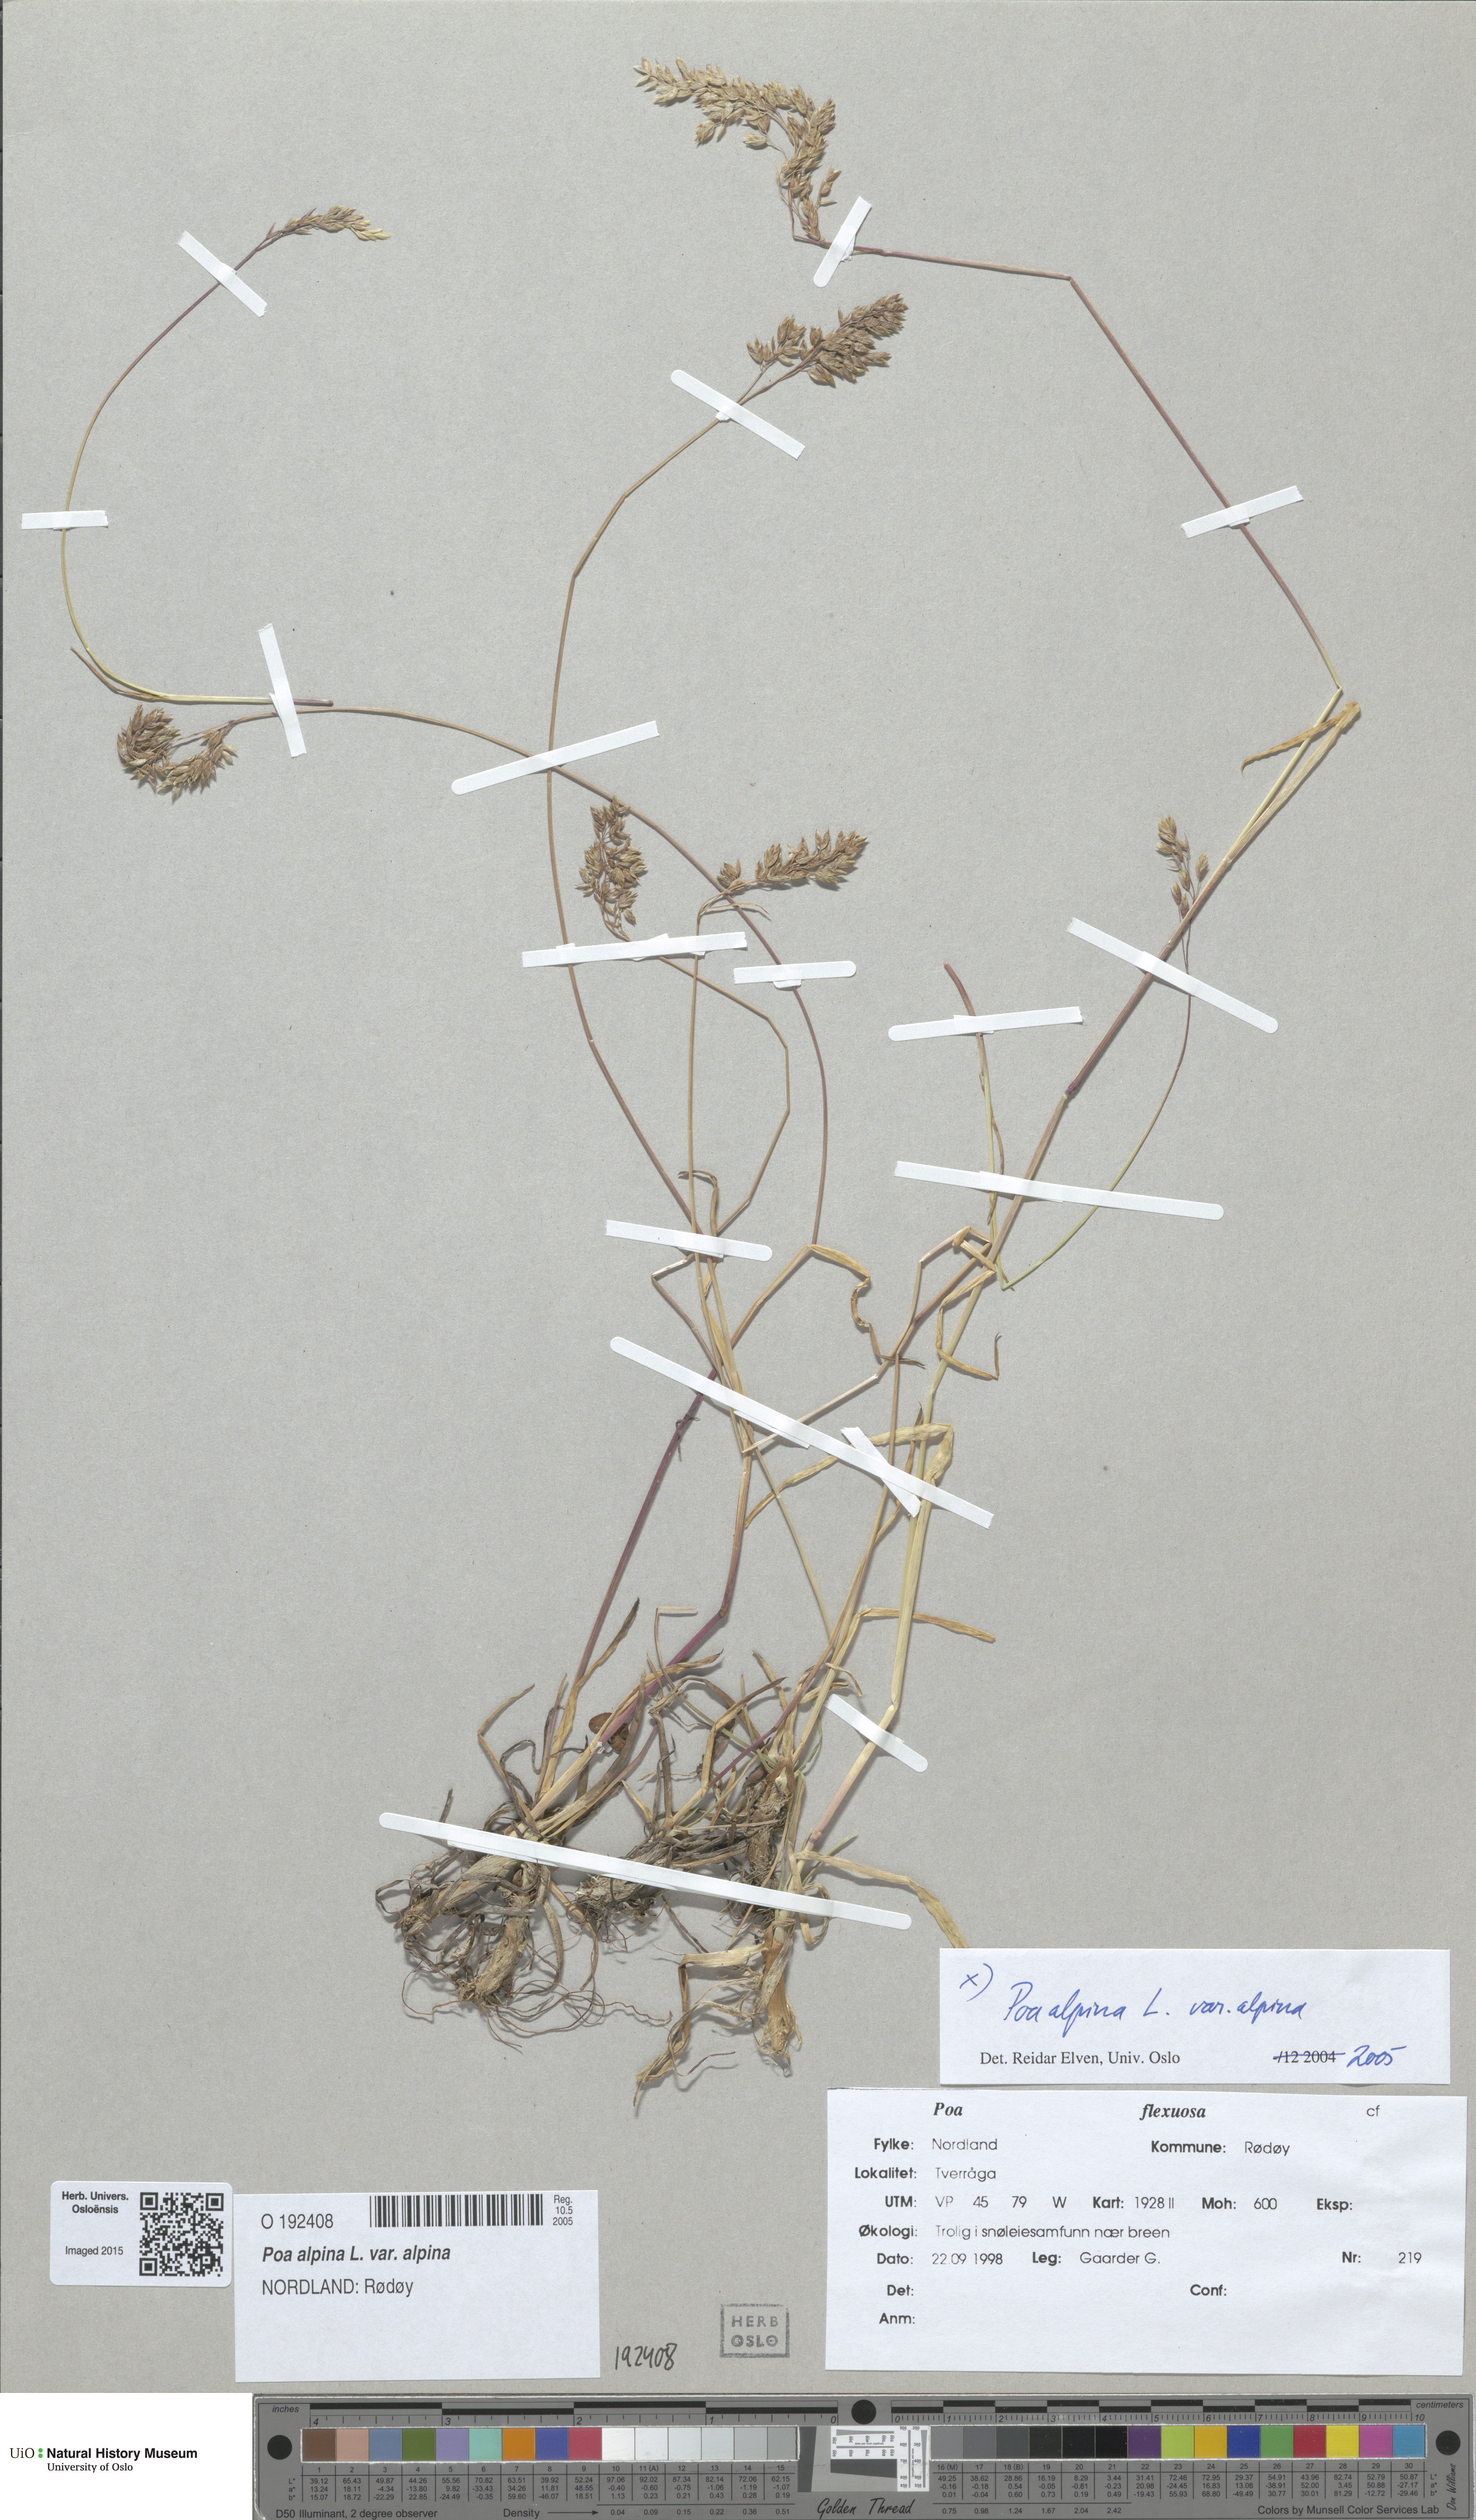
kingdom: Plantae
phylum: Tracheophyta
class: Liliopsida
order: Poales
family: Poaceae
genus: Poa
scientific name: Poa alpina
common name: Alpine bluegrass
